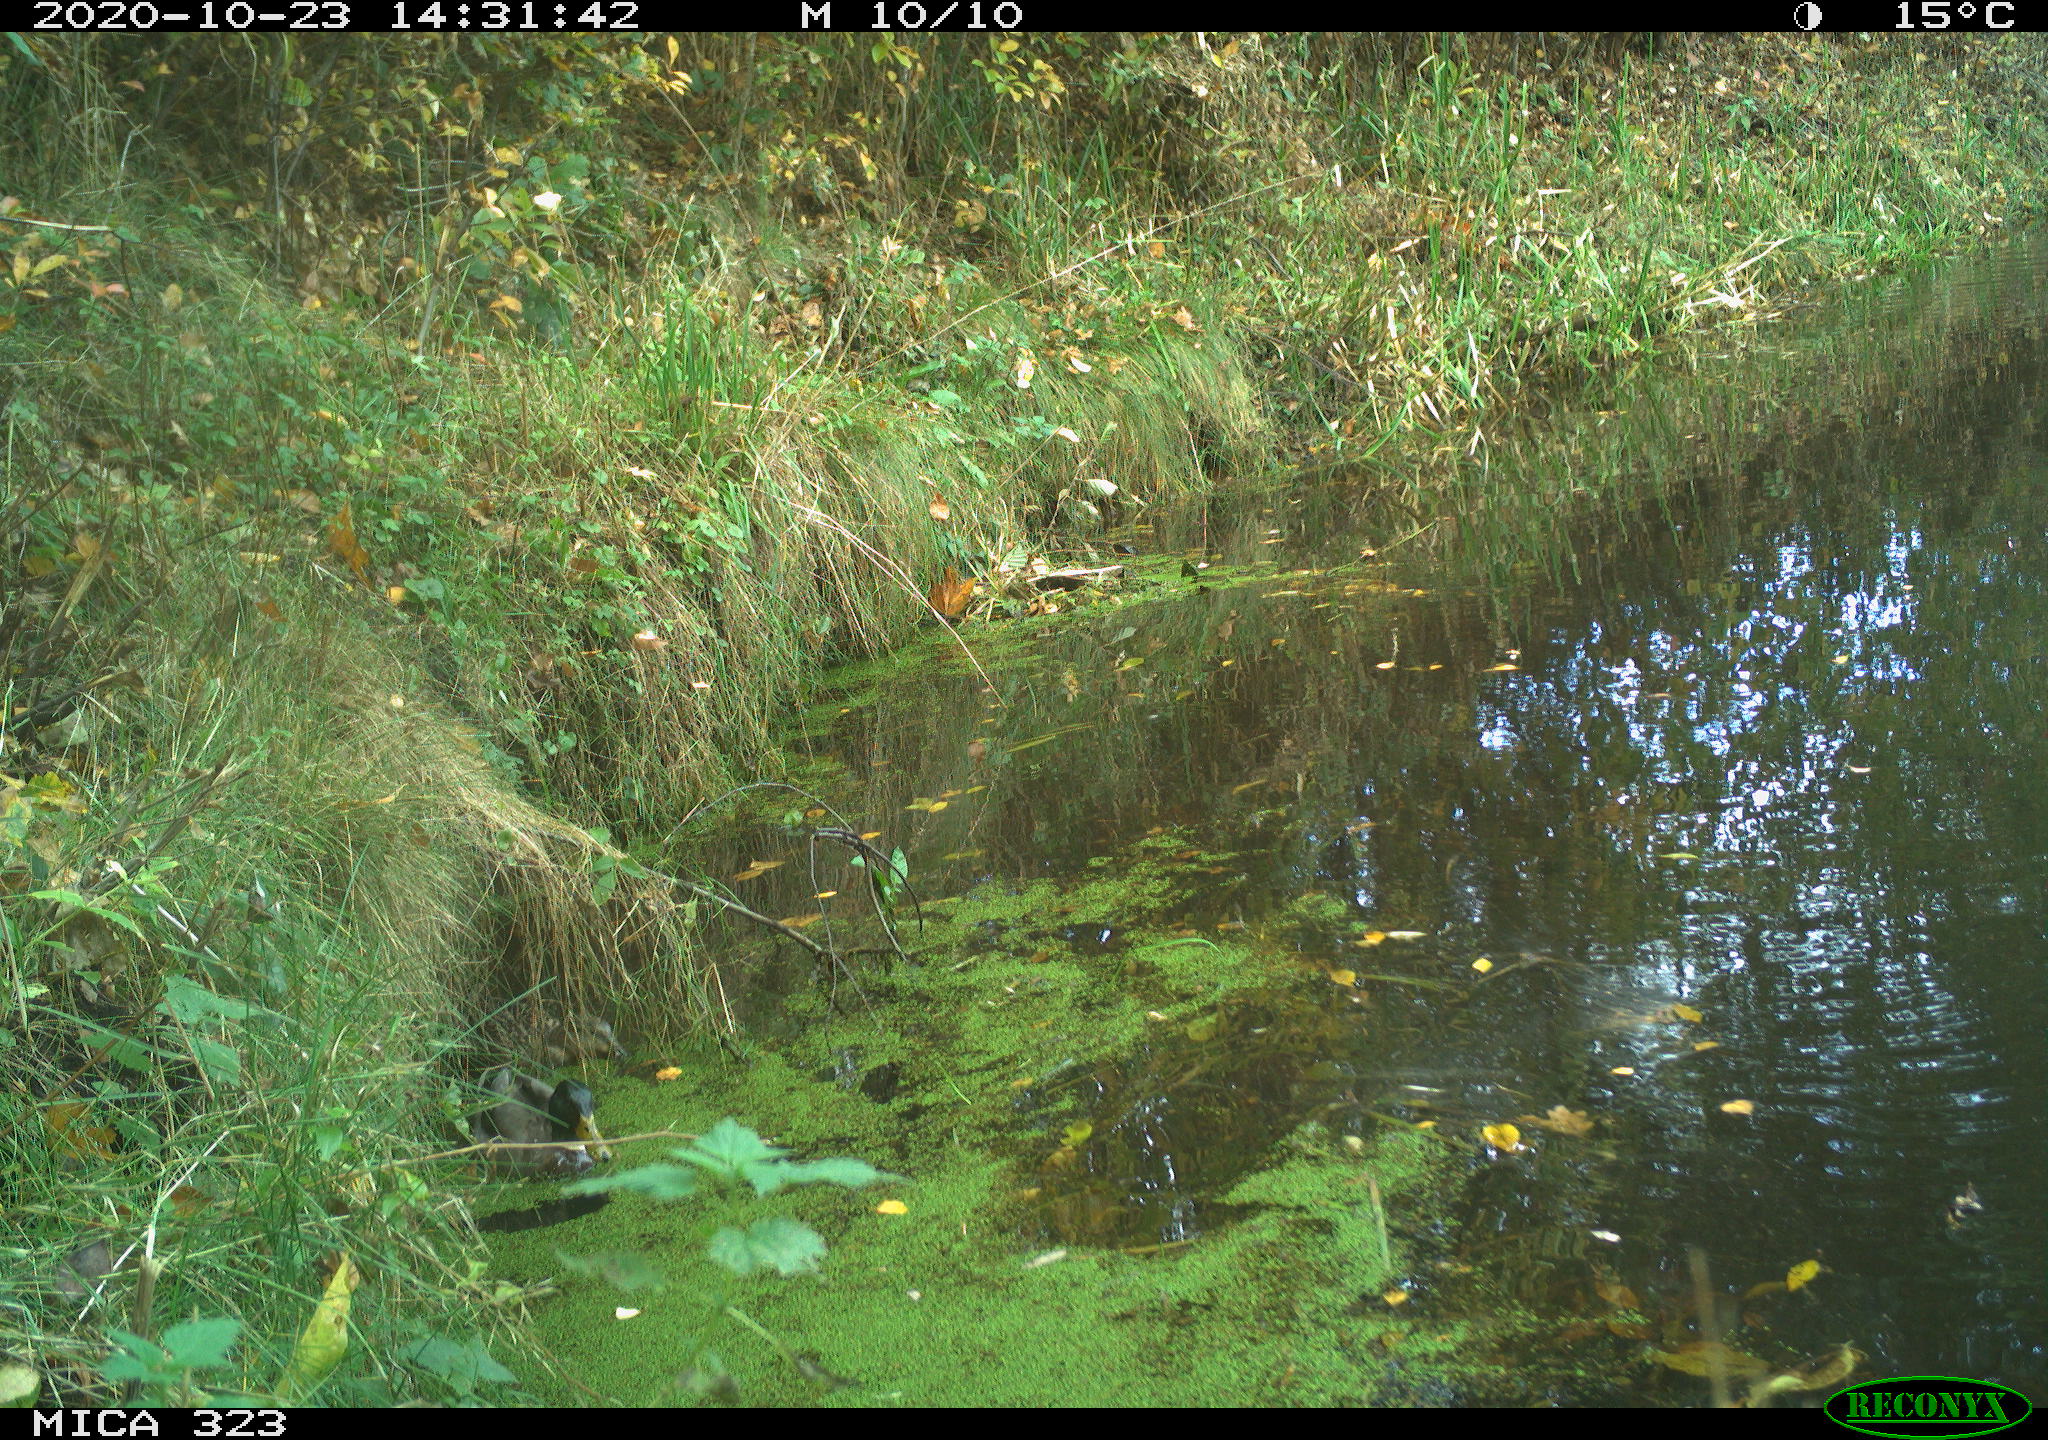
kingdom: Animalia
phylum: Chordata
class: Aves
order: Anseriformes
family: Anatidae
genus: Anas
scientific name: Anas platyrhynchos
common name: Mallard
